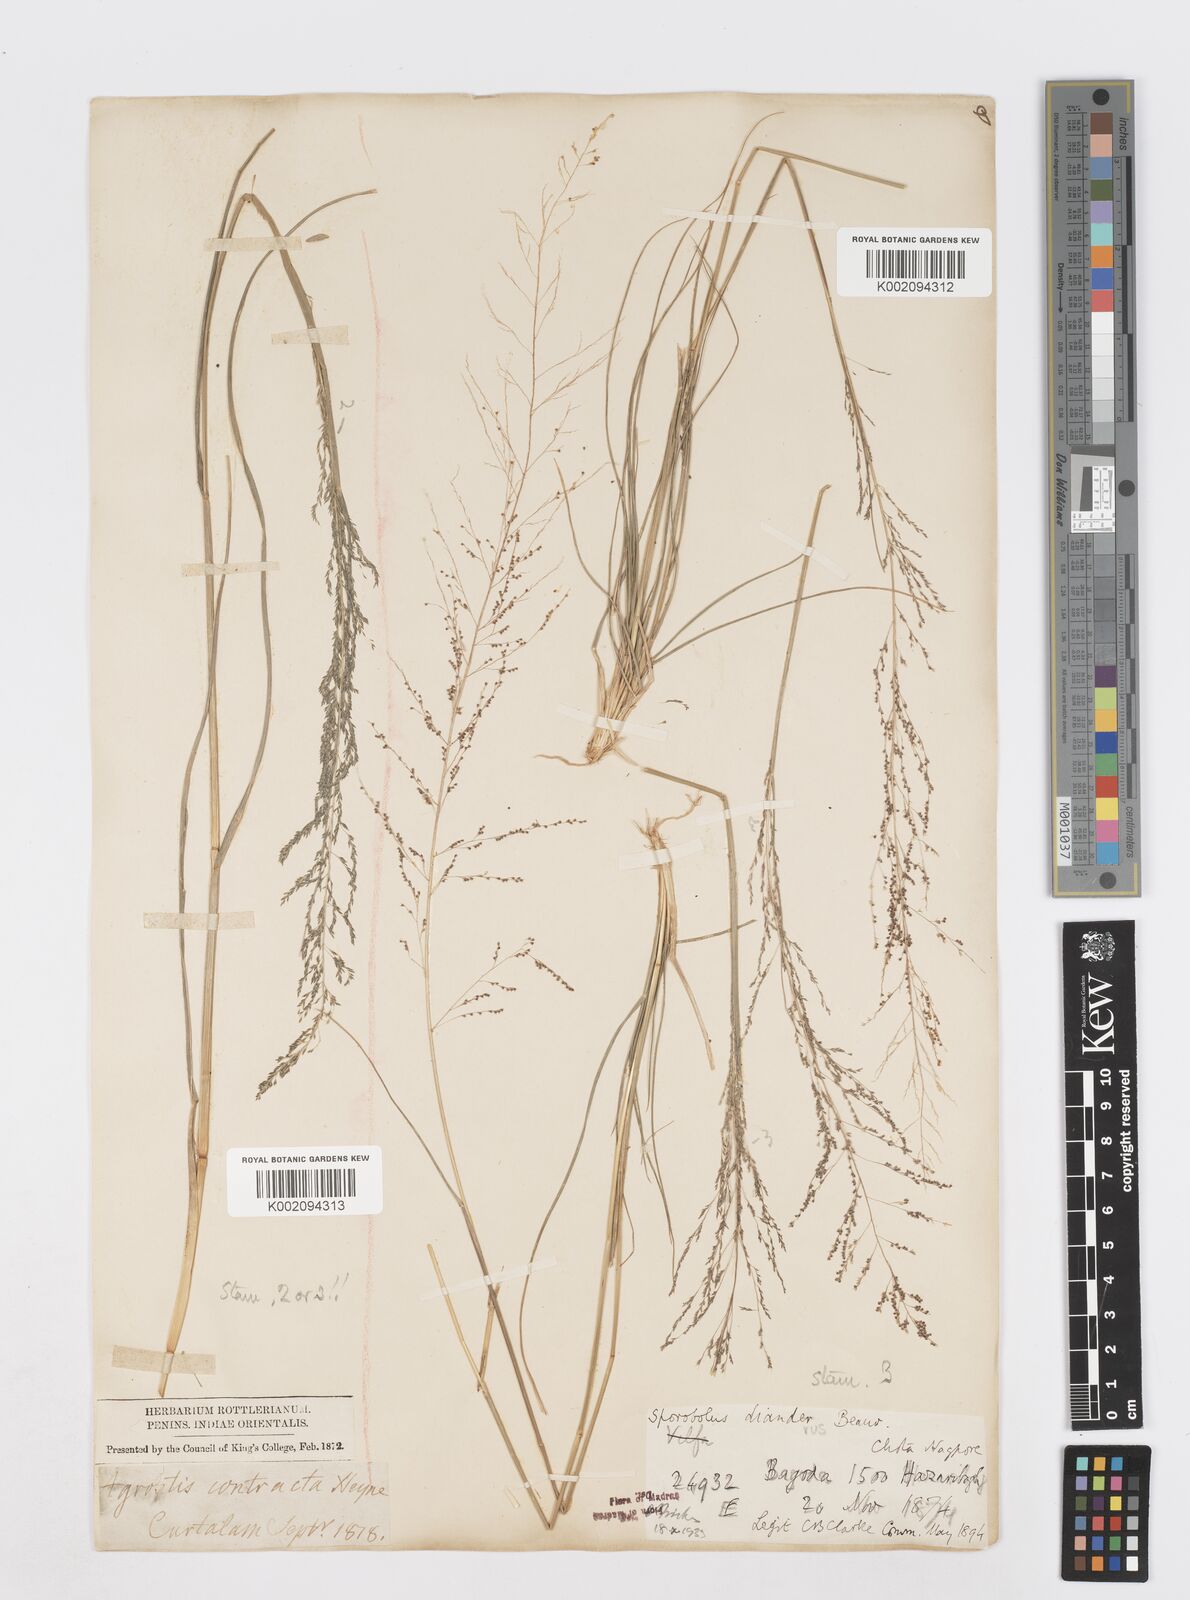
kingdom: Plantae
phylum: Tracheophyta
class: Liliopsida
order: Poales
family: Poaceae
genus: Sporobolus
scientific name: Sporobolus diandrus
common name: Tussock dropseed
